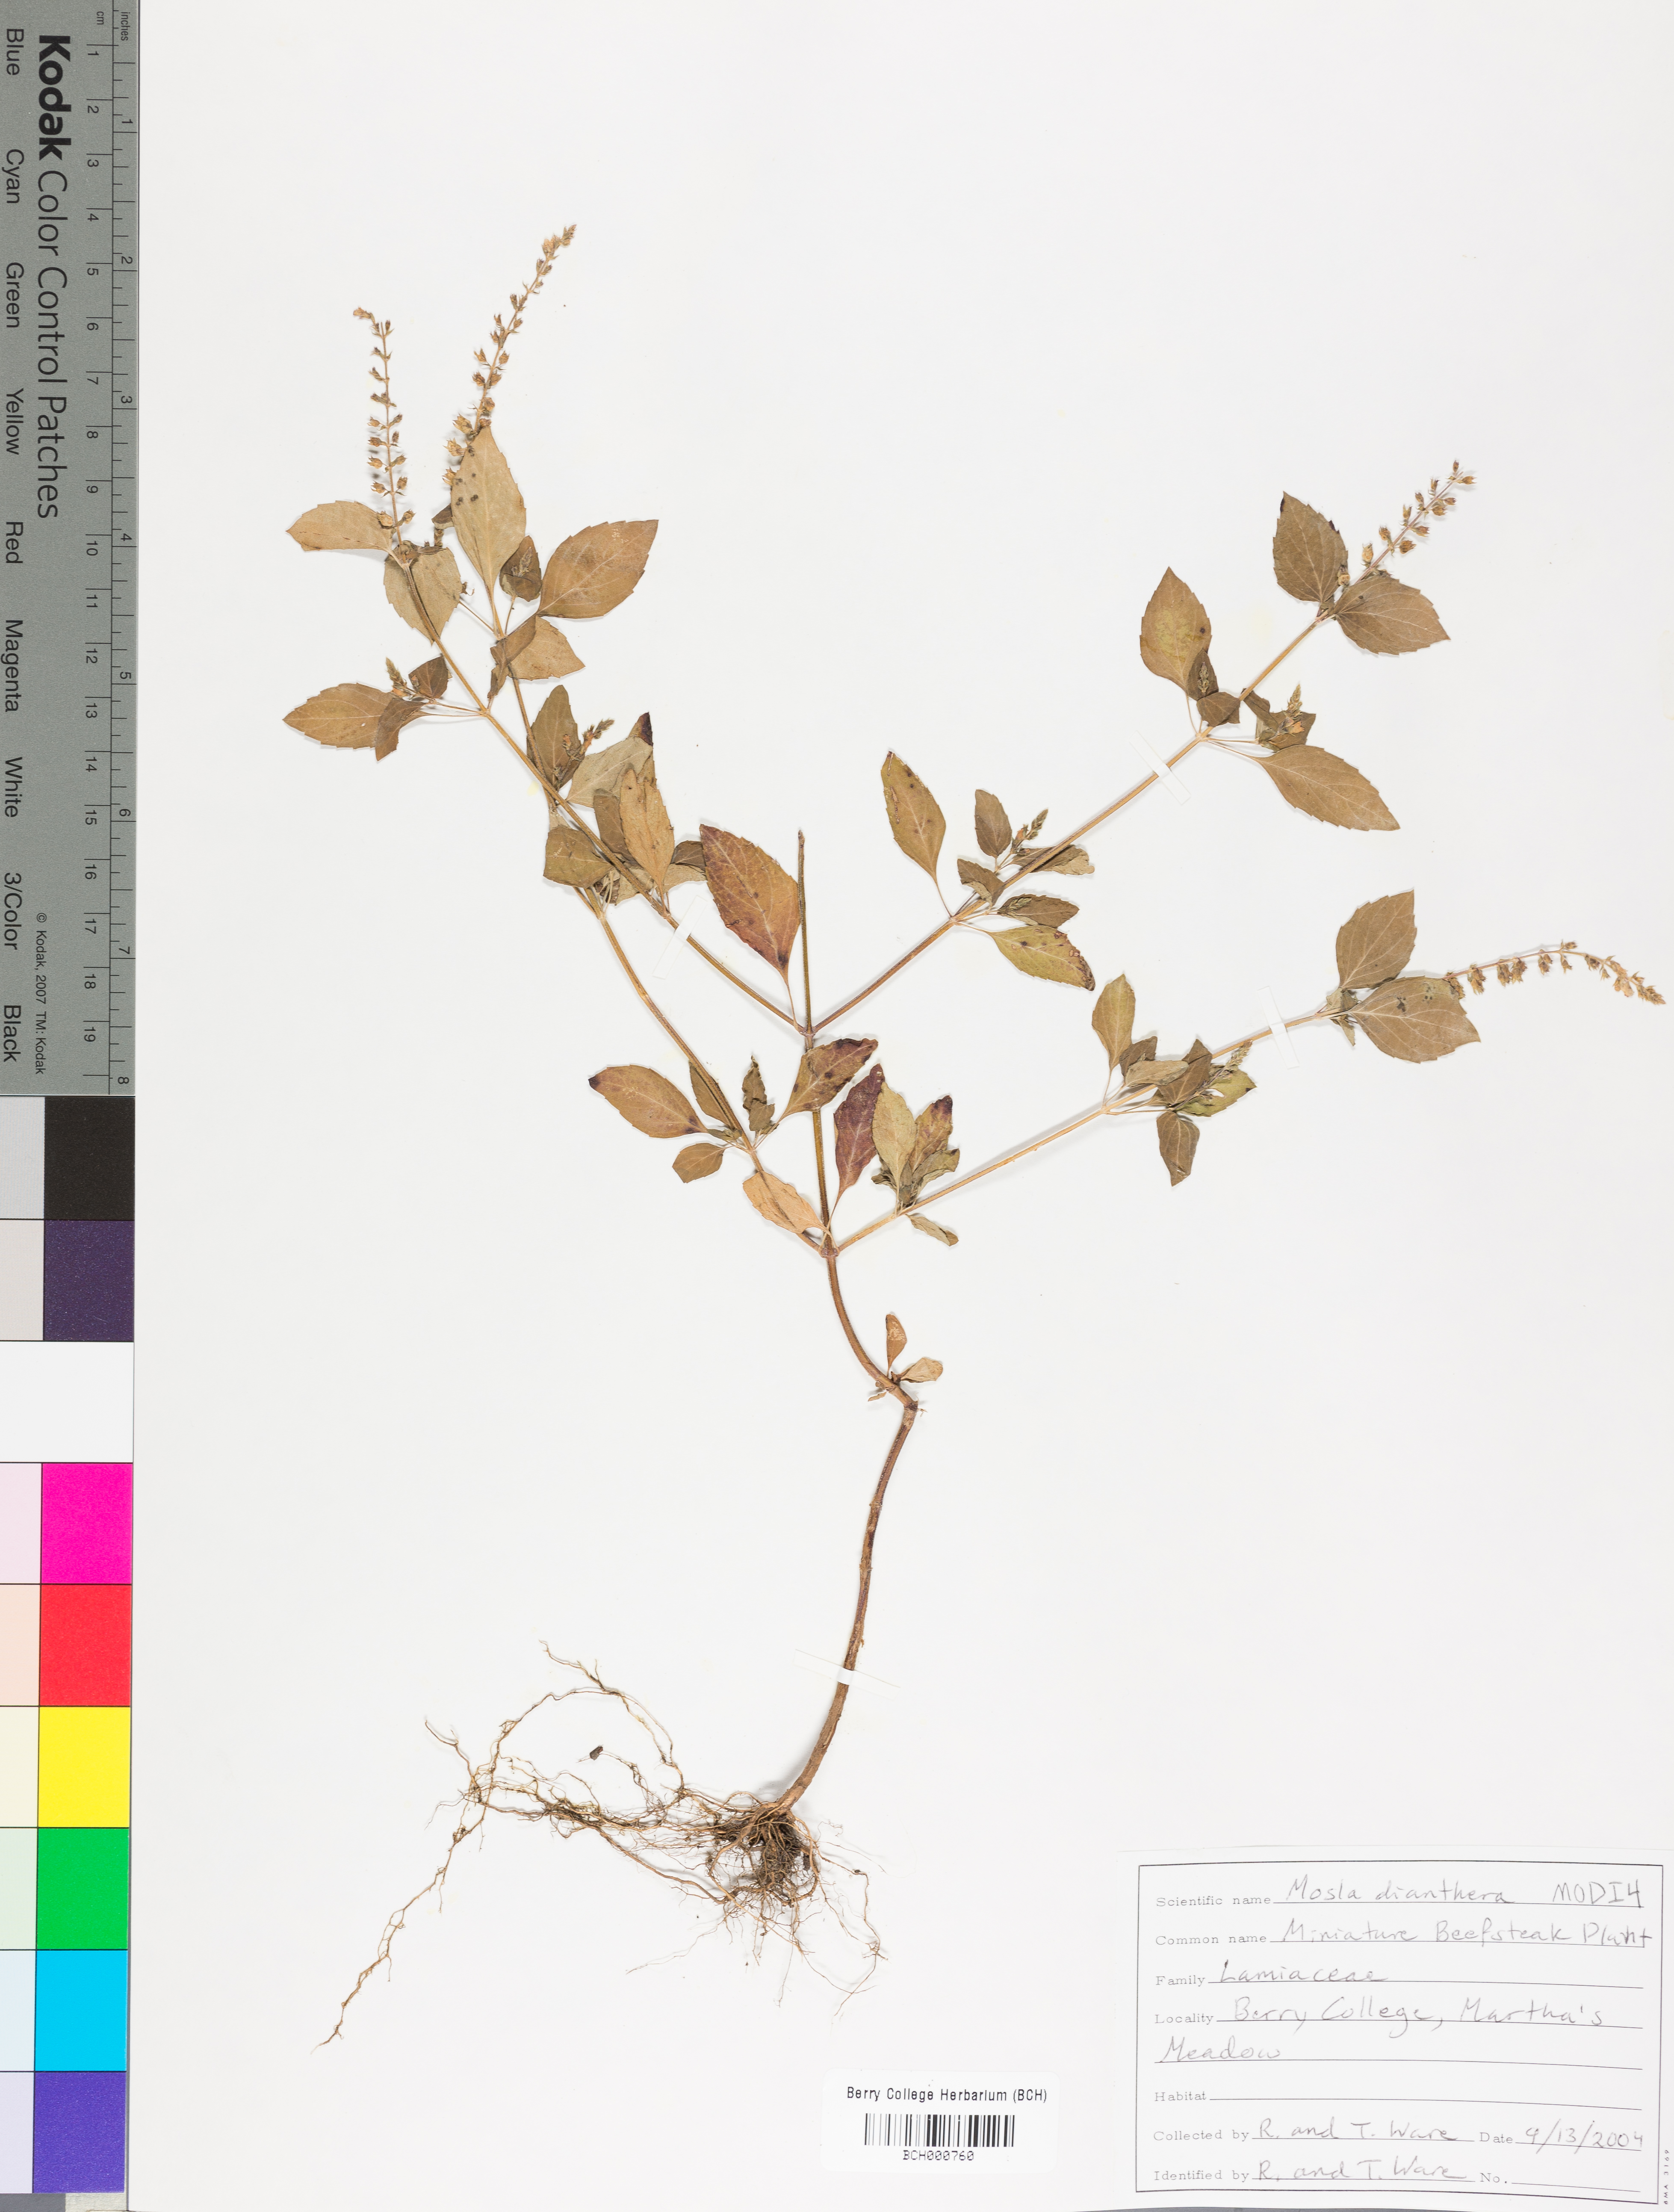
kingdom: Plantae
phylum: Tracheophyta
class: Magnoliopsida
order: Lamiales
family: Lamiaceae
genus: Mosla
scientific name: Mosla dianthera
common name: Miniature beefsteakplant
